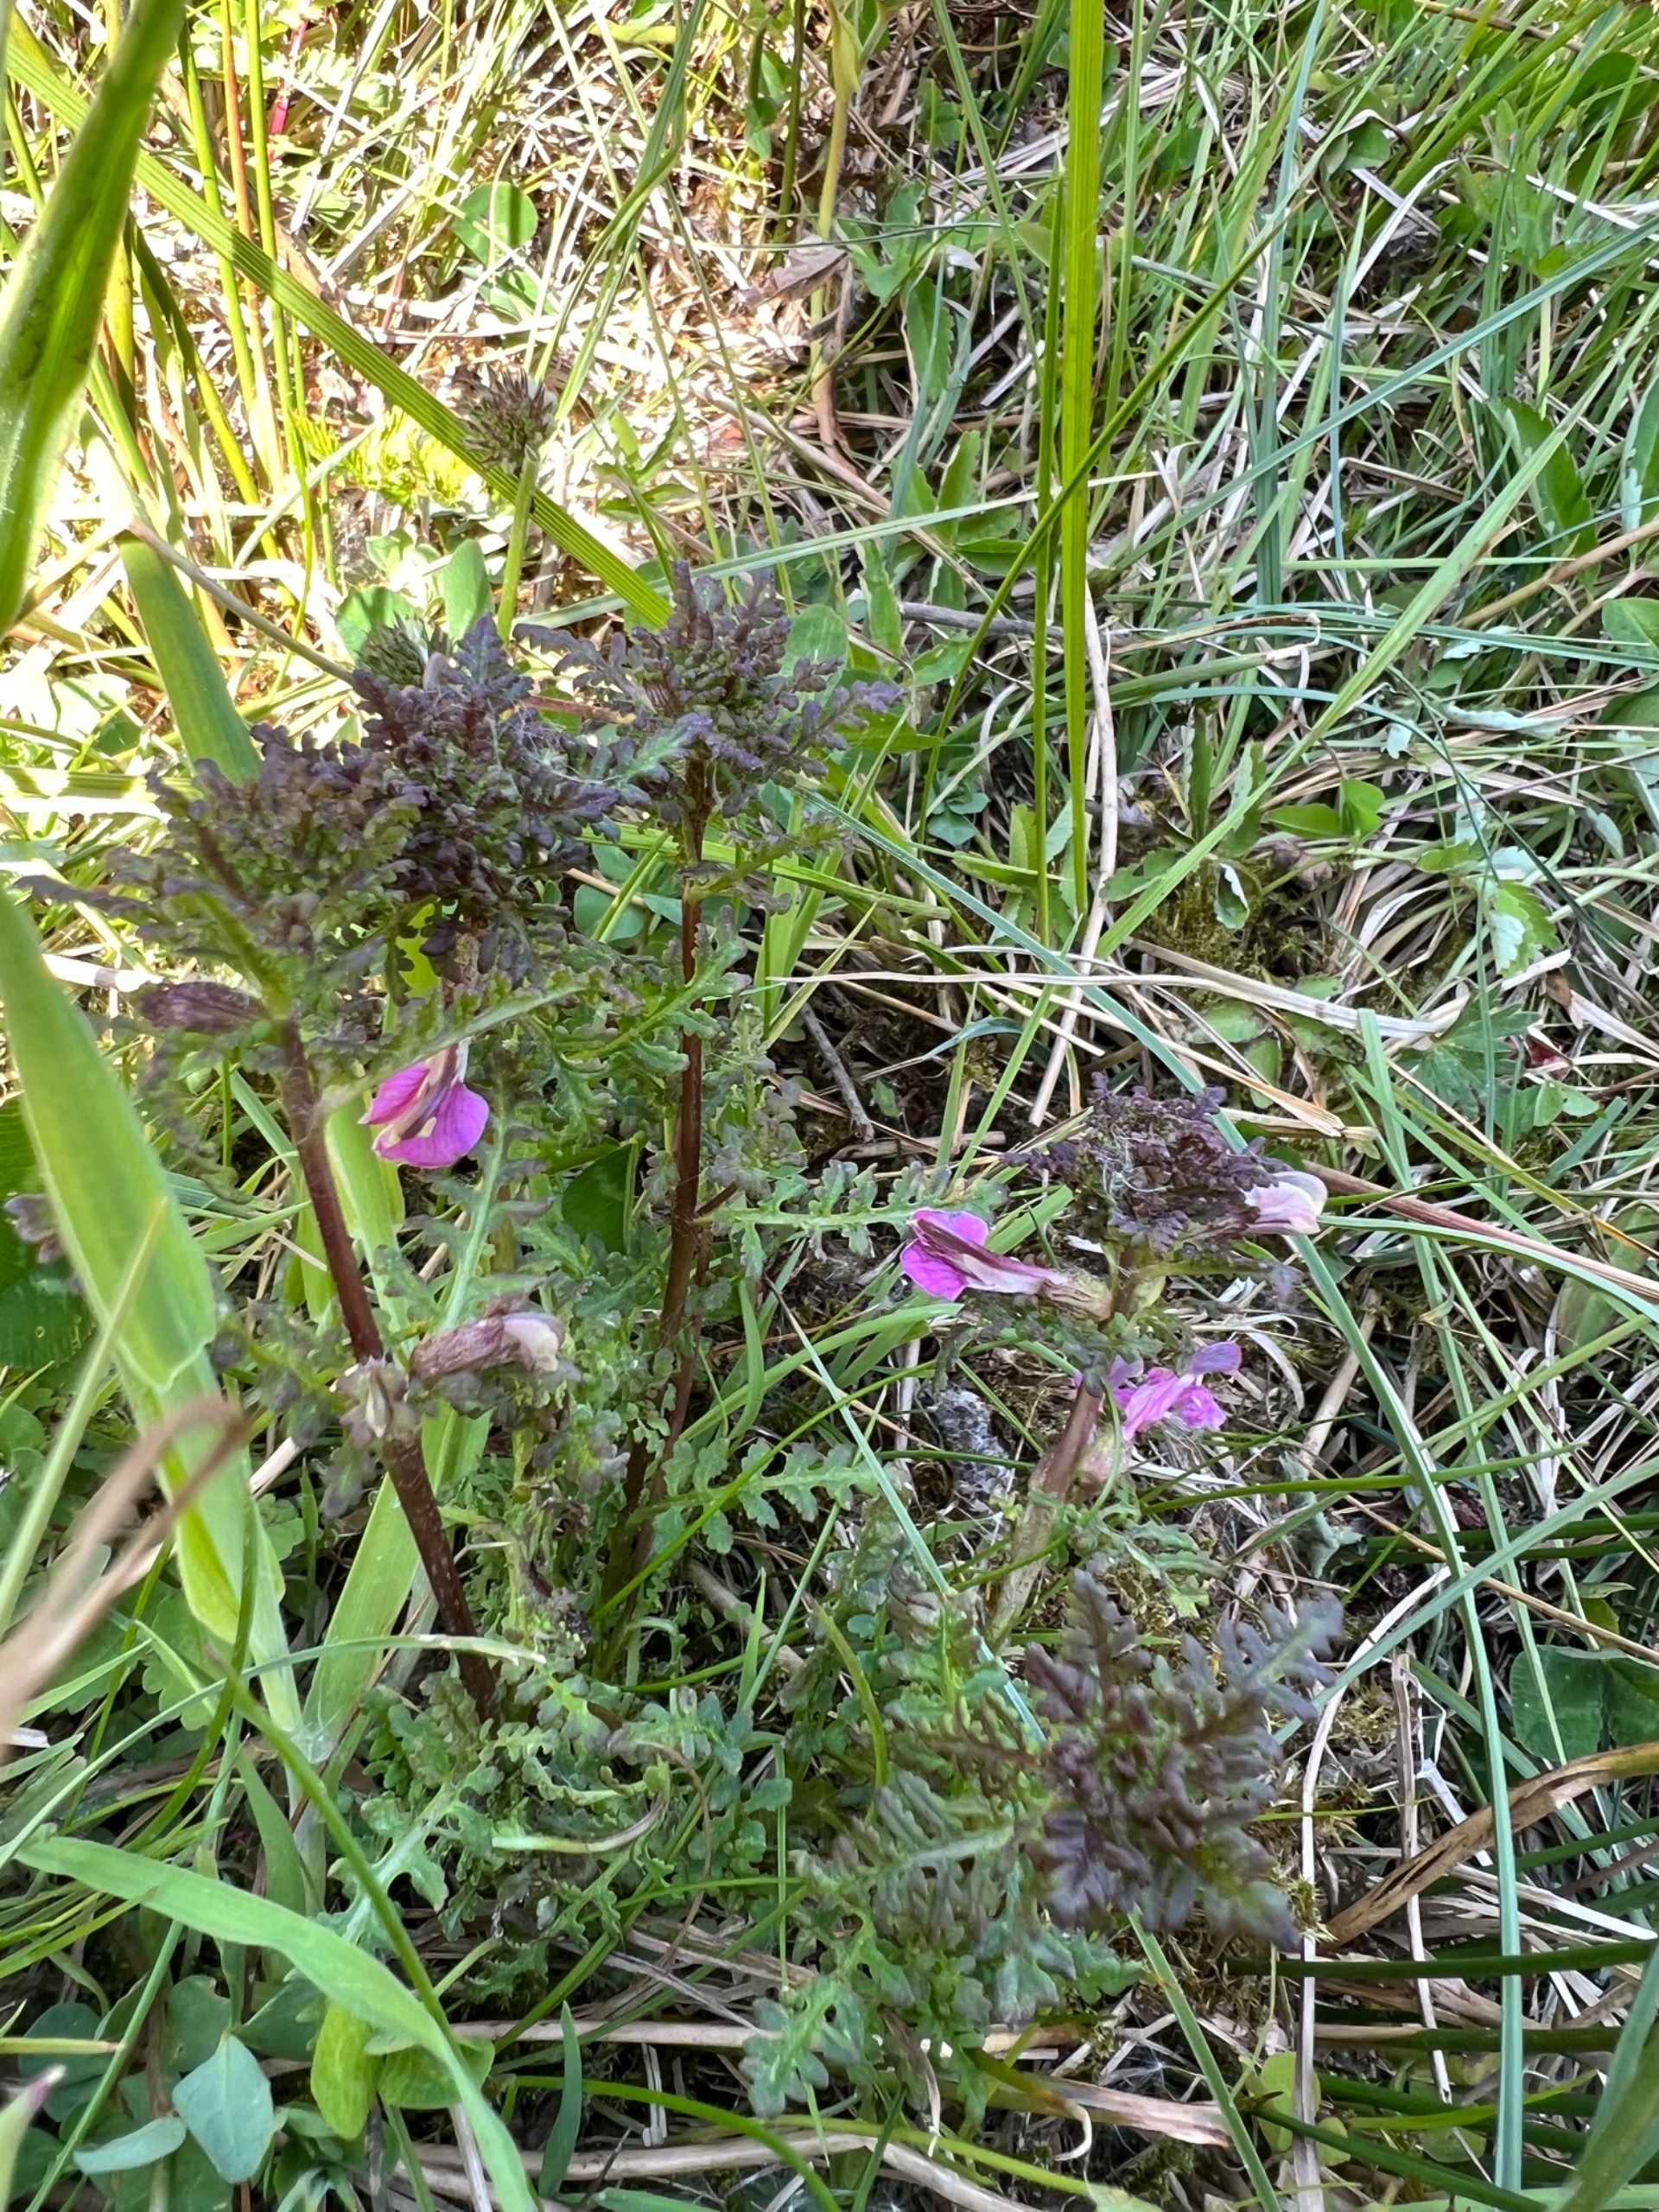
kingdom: Plantae
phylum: Tracheophyta
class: Magnoliopsida
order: Lamiales
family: Orobanchaceae
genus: Pedicularis
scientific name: Pedicularis palustris
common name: Eng-troldurt
